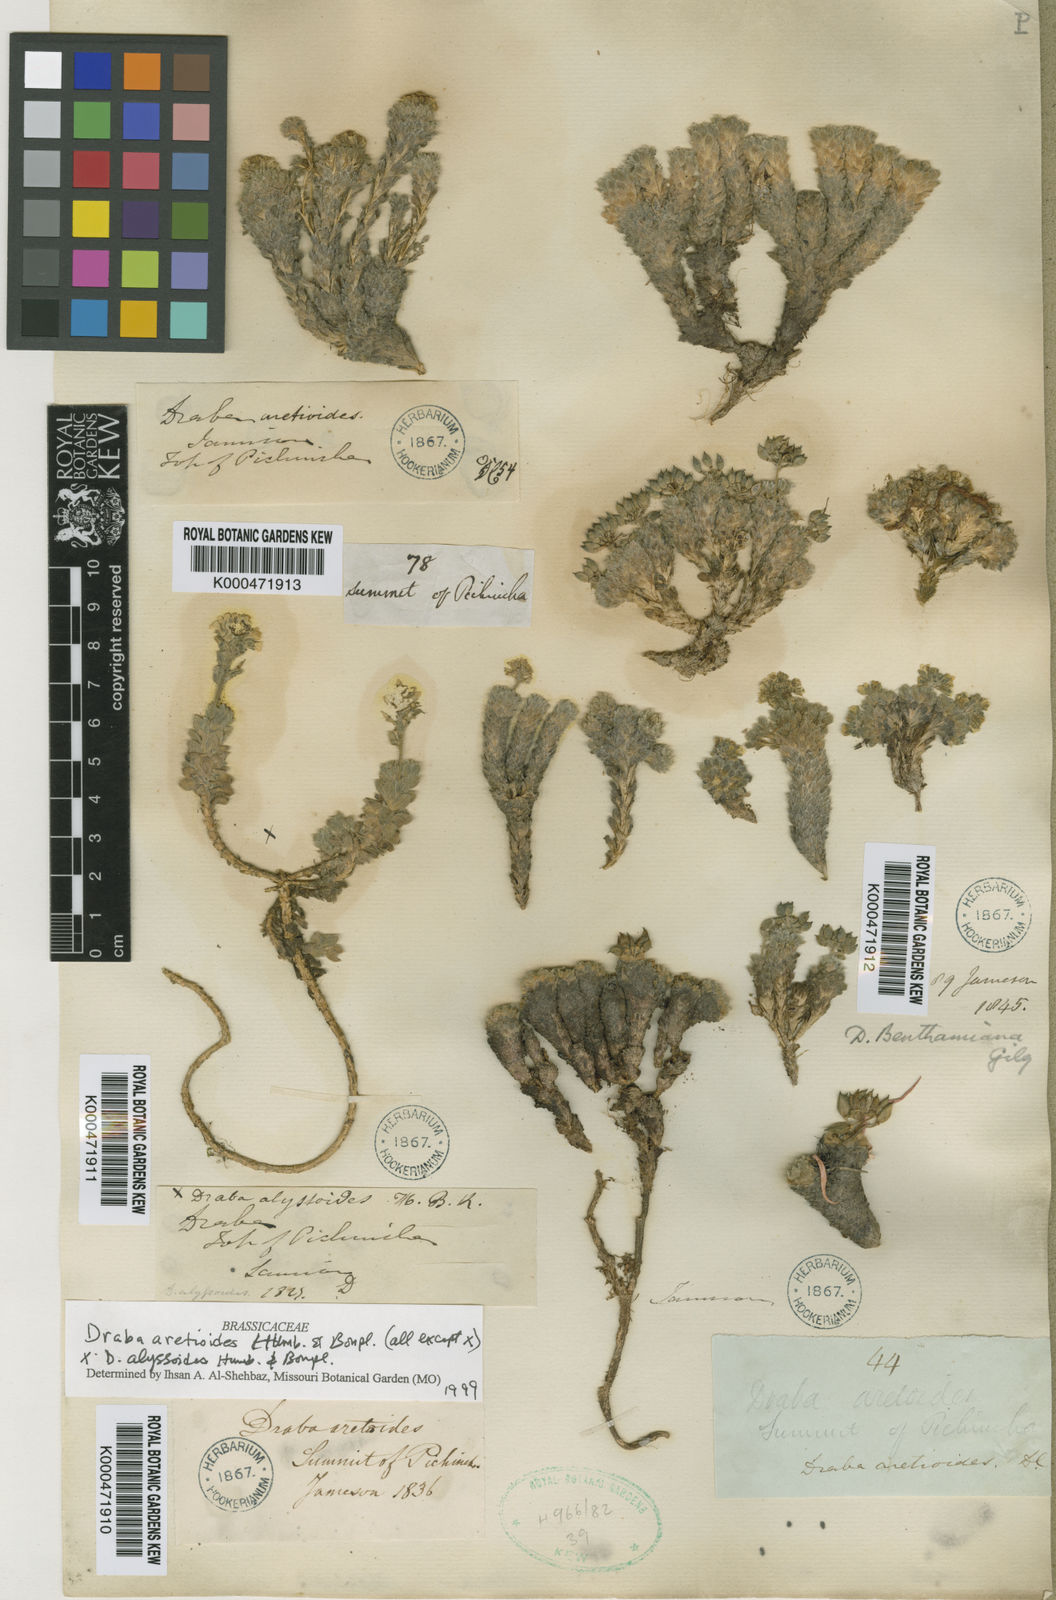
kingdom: Plantae
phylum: Tracheophyta
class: Magnoliopsida
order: Brassicales
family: Brassicaceae
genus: Draba
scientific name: Draba aretioides
